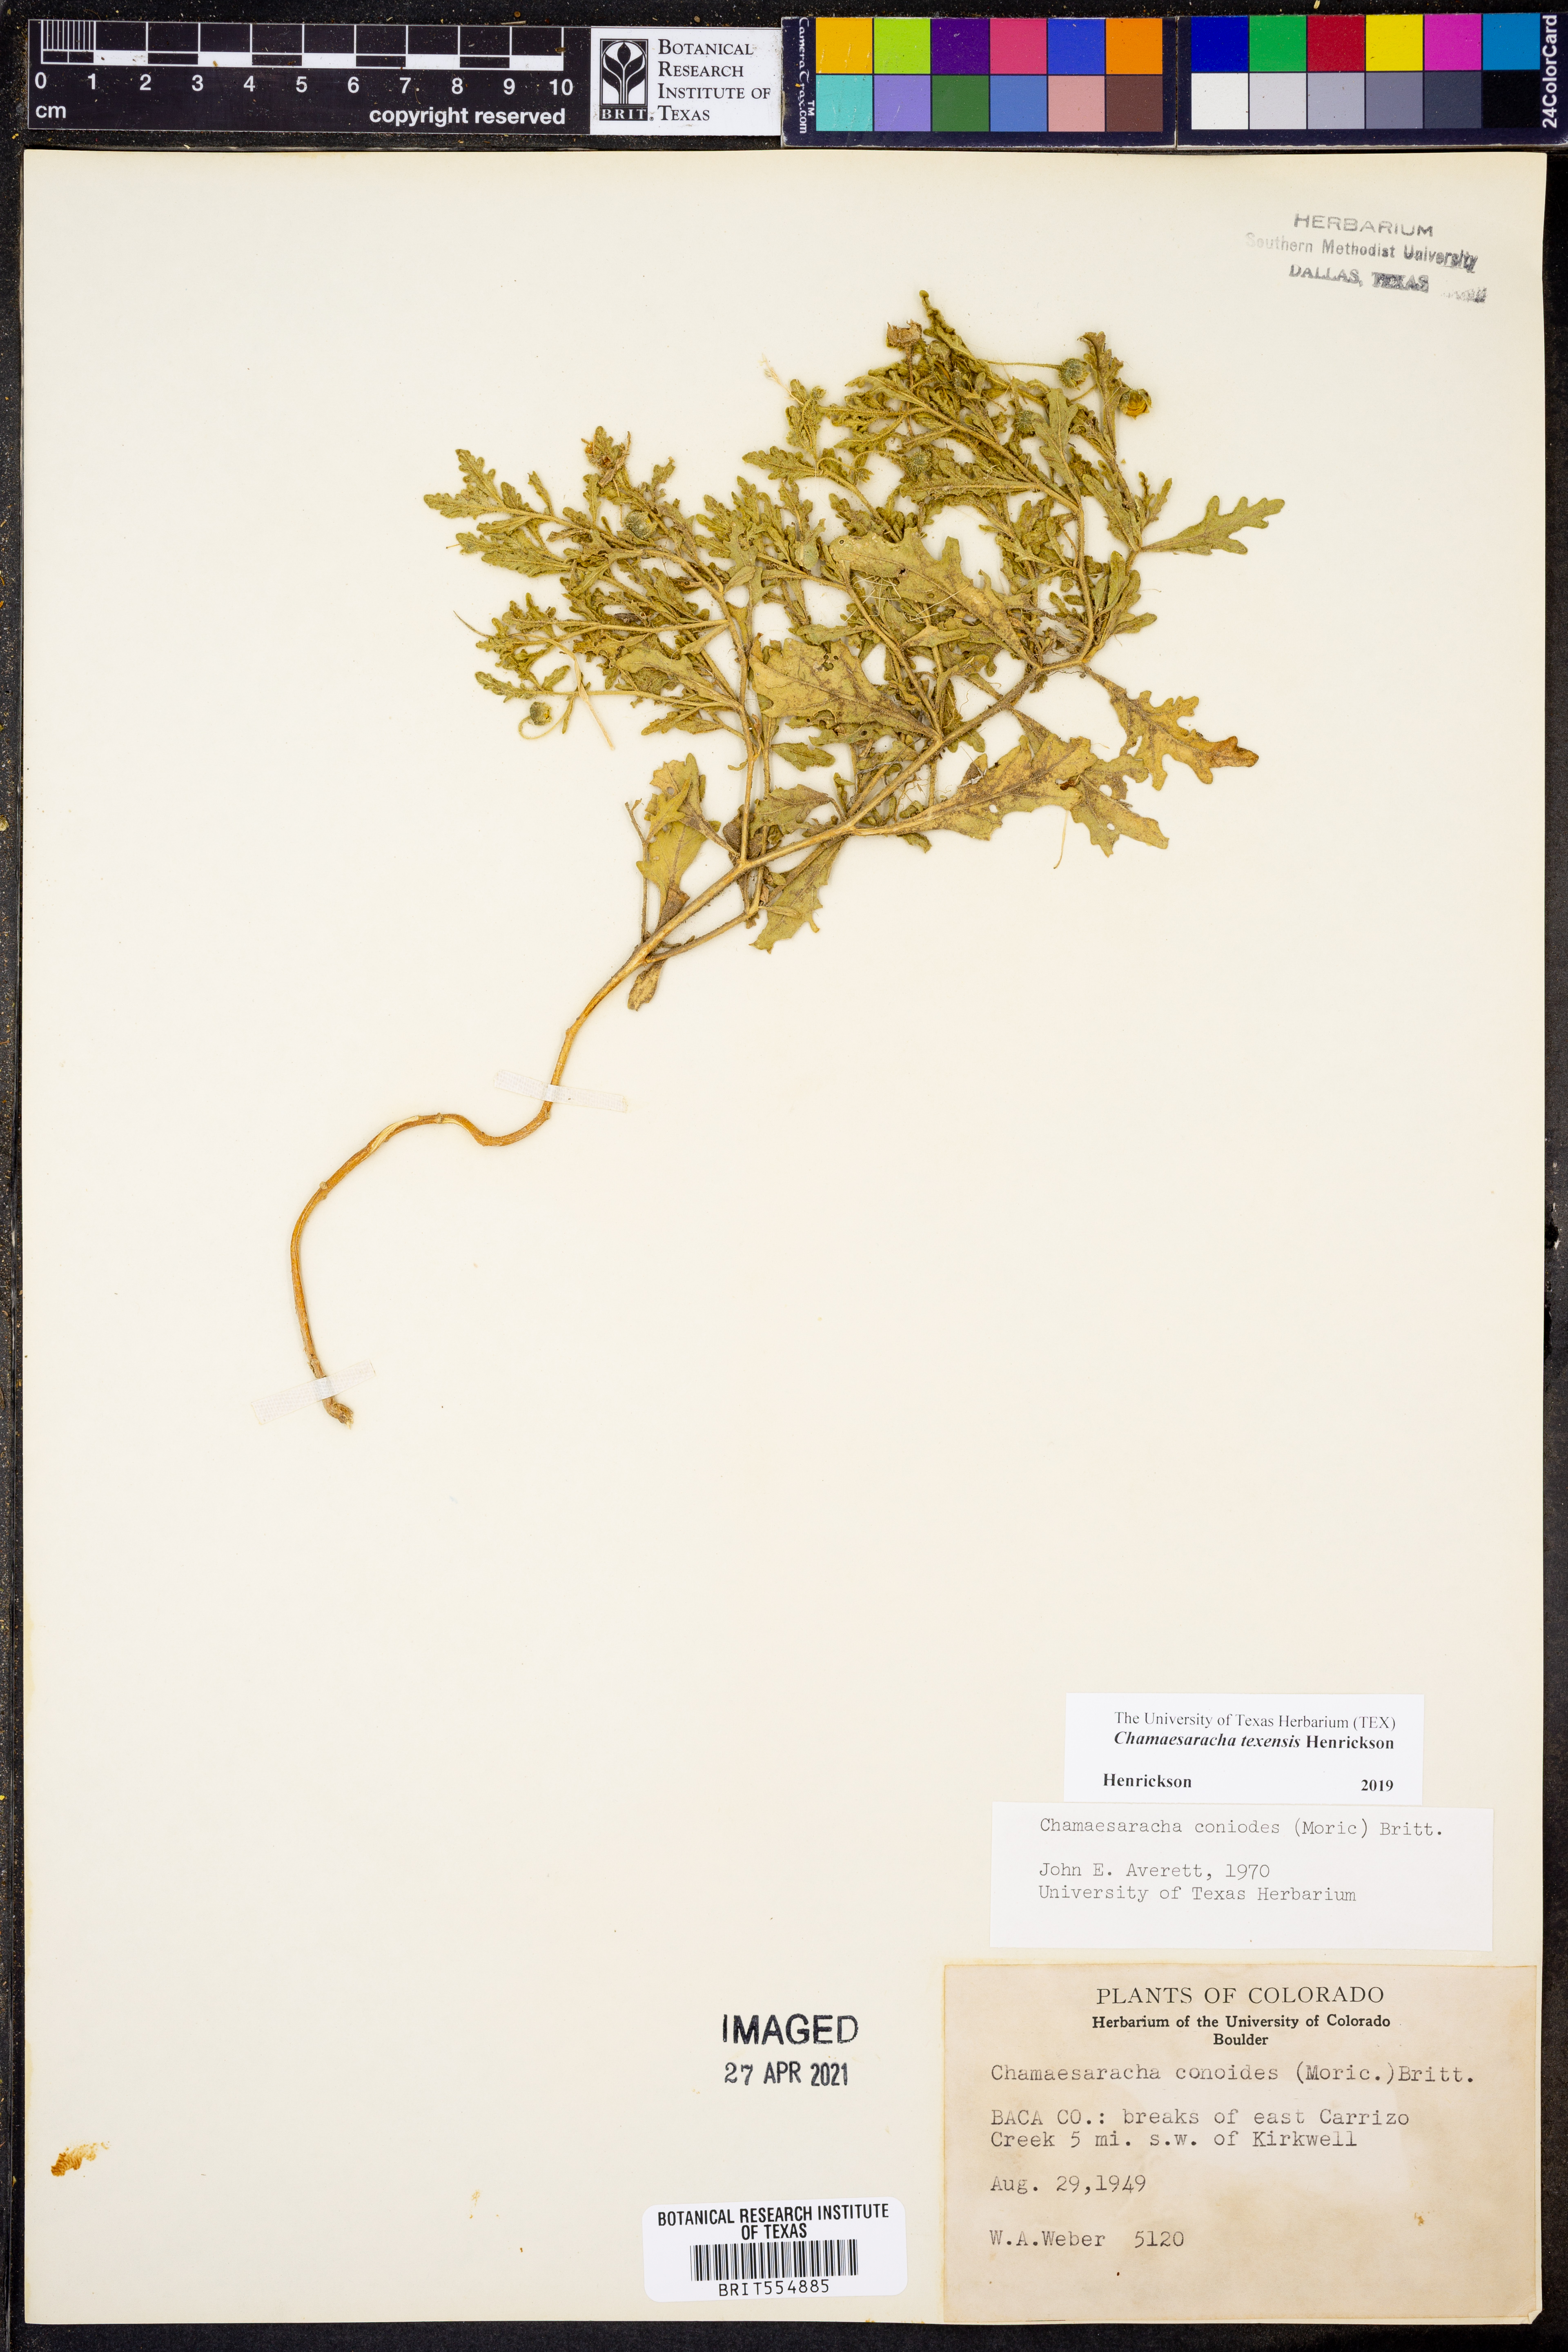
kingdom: Plantae
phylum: Tracheophyta
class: Magnoliopsida
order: Solanales
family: Solanaceae
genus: Chamaesaracha
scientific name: Chamaesaracha texensis
